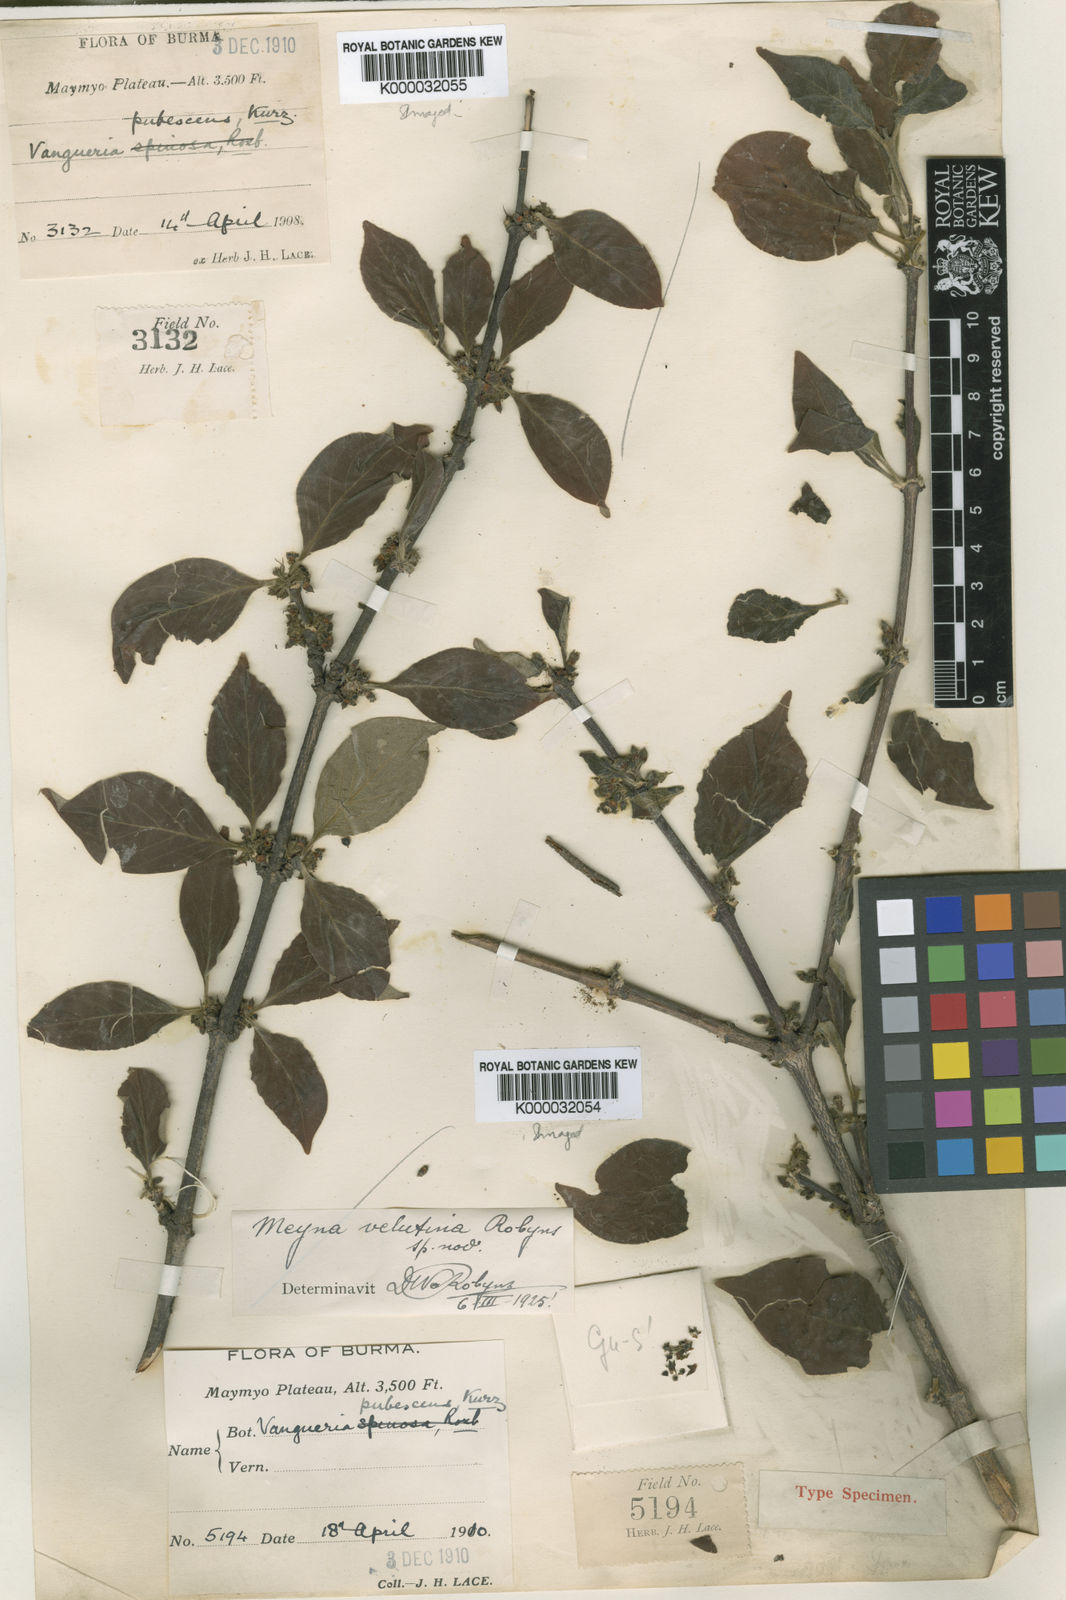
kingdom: Plantae
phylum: Tracheophyta
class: Magnoliopsida
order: Gentianales
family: Rubiaceae
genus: Meyna
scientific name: Meyna velutina
